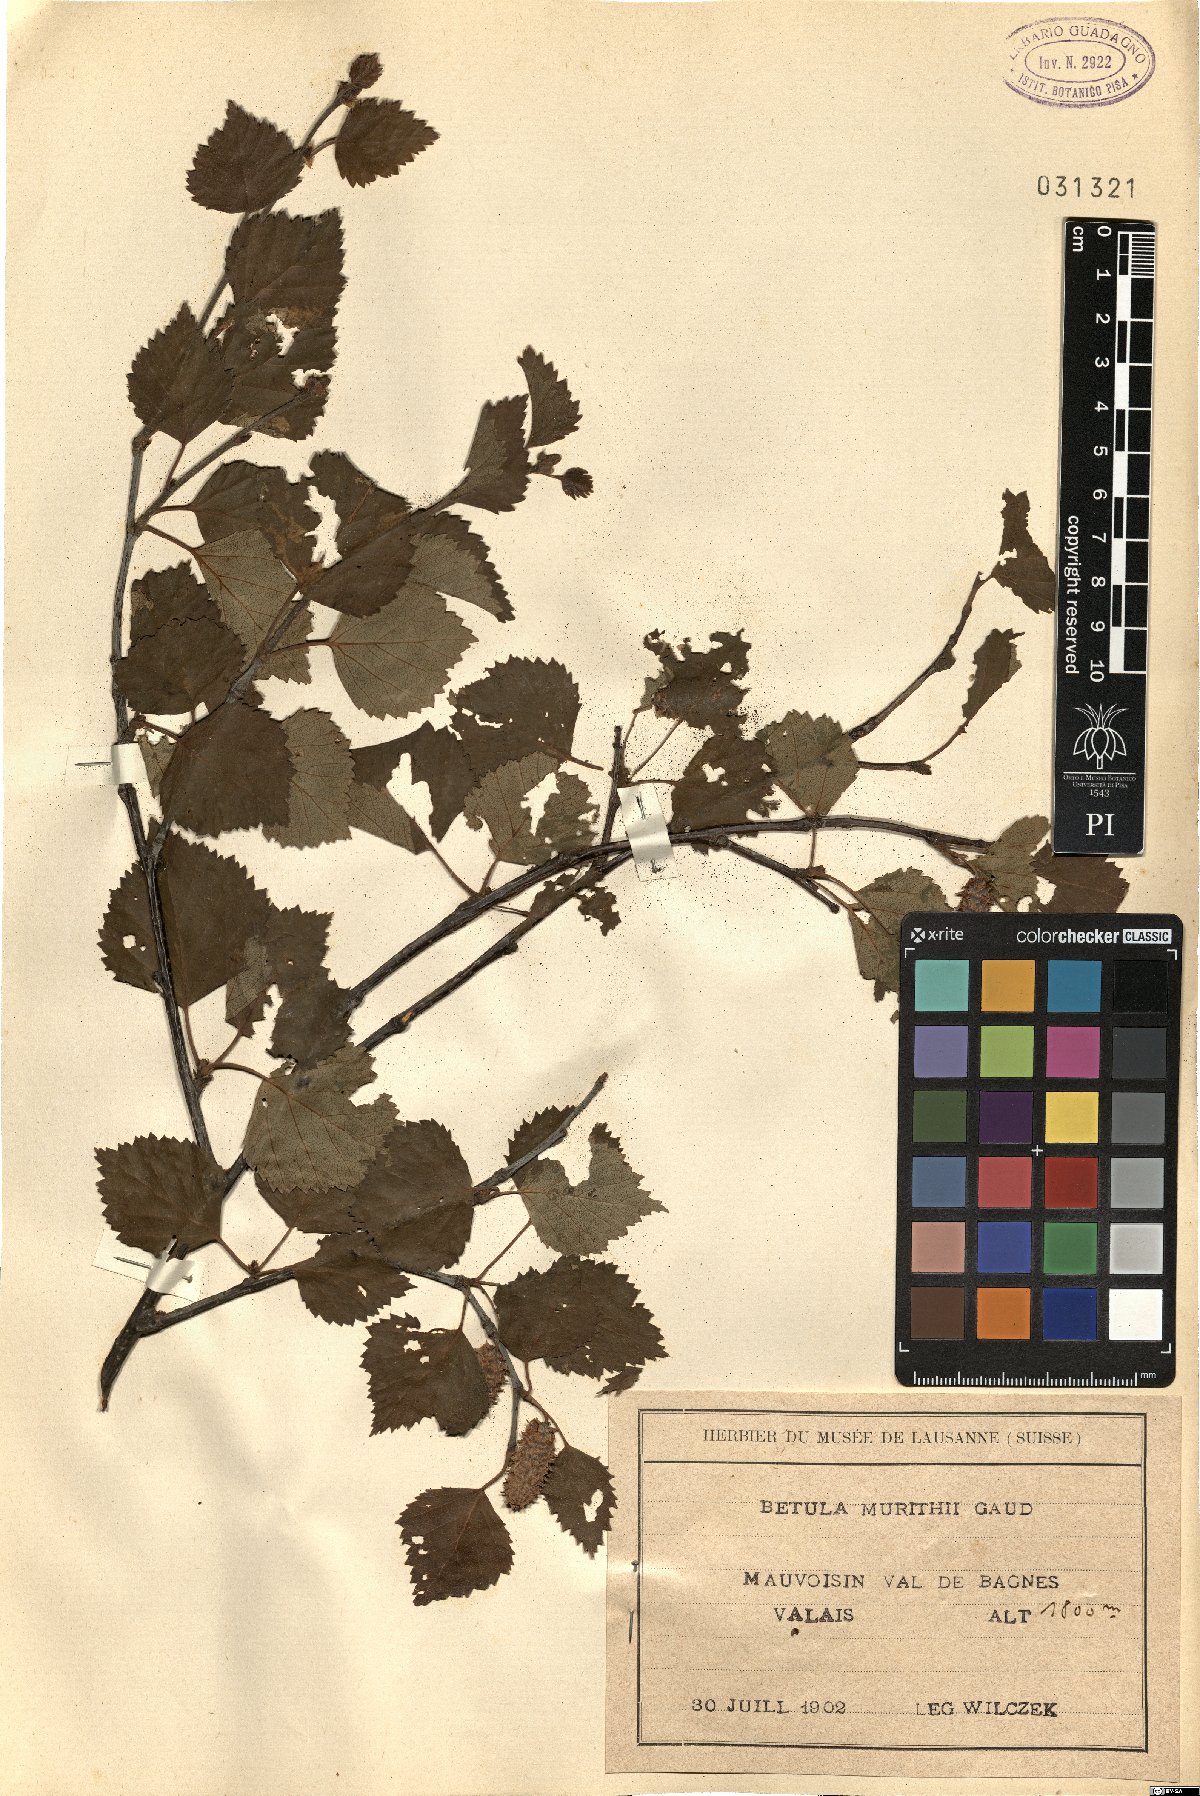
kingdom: Plantae
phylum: Tracheophyta
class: Magnoliopsida
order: Fagales
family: Betulaceae
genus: Betula
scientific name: Betula pubescens
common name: Downy birch
